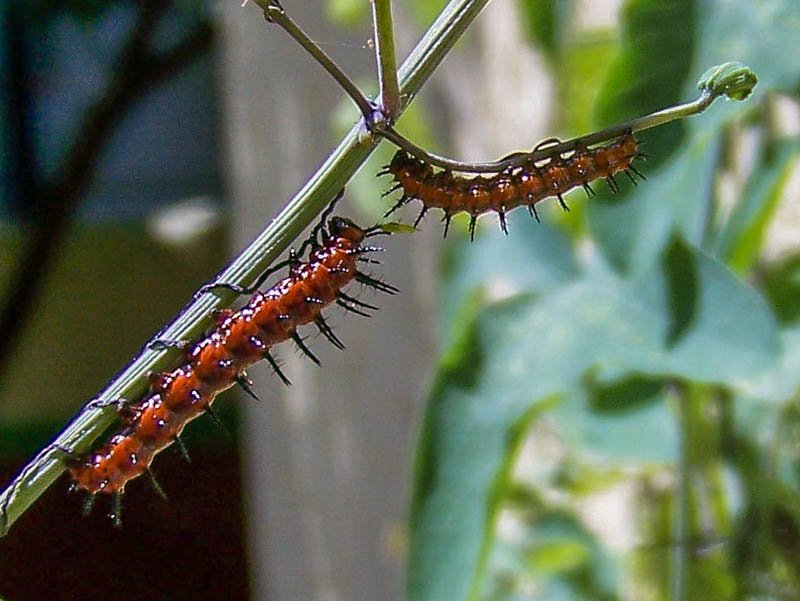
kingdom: Animalia
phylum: Arthropoda
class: Insecta
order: Lepidoptera
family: Nymphalidae
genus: Dione
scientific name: Dione vanillae
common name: Gulf Fritillary
